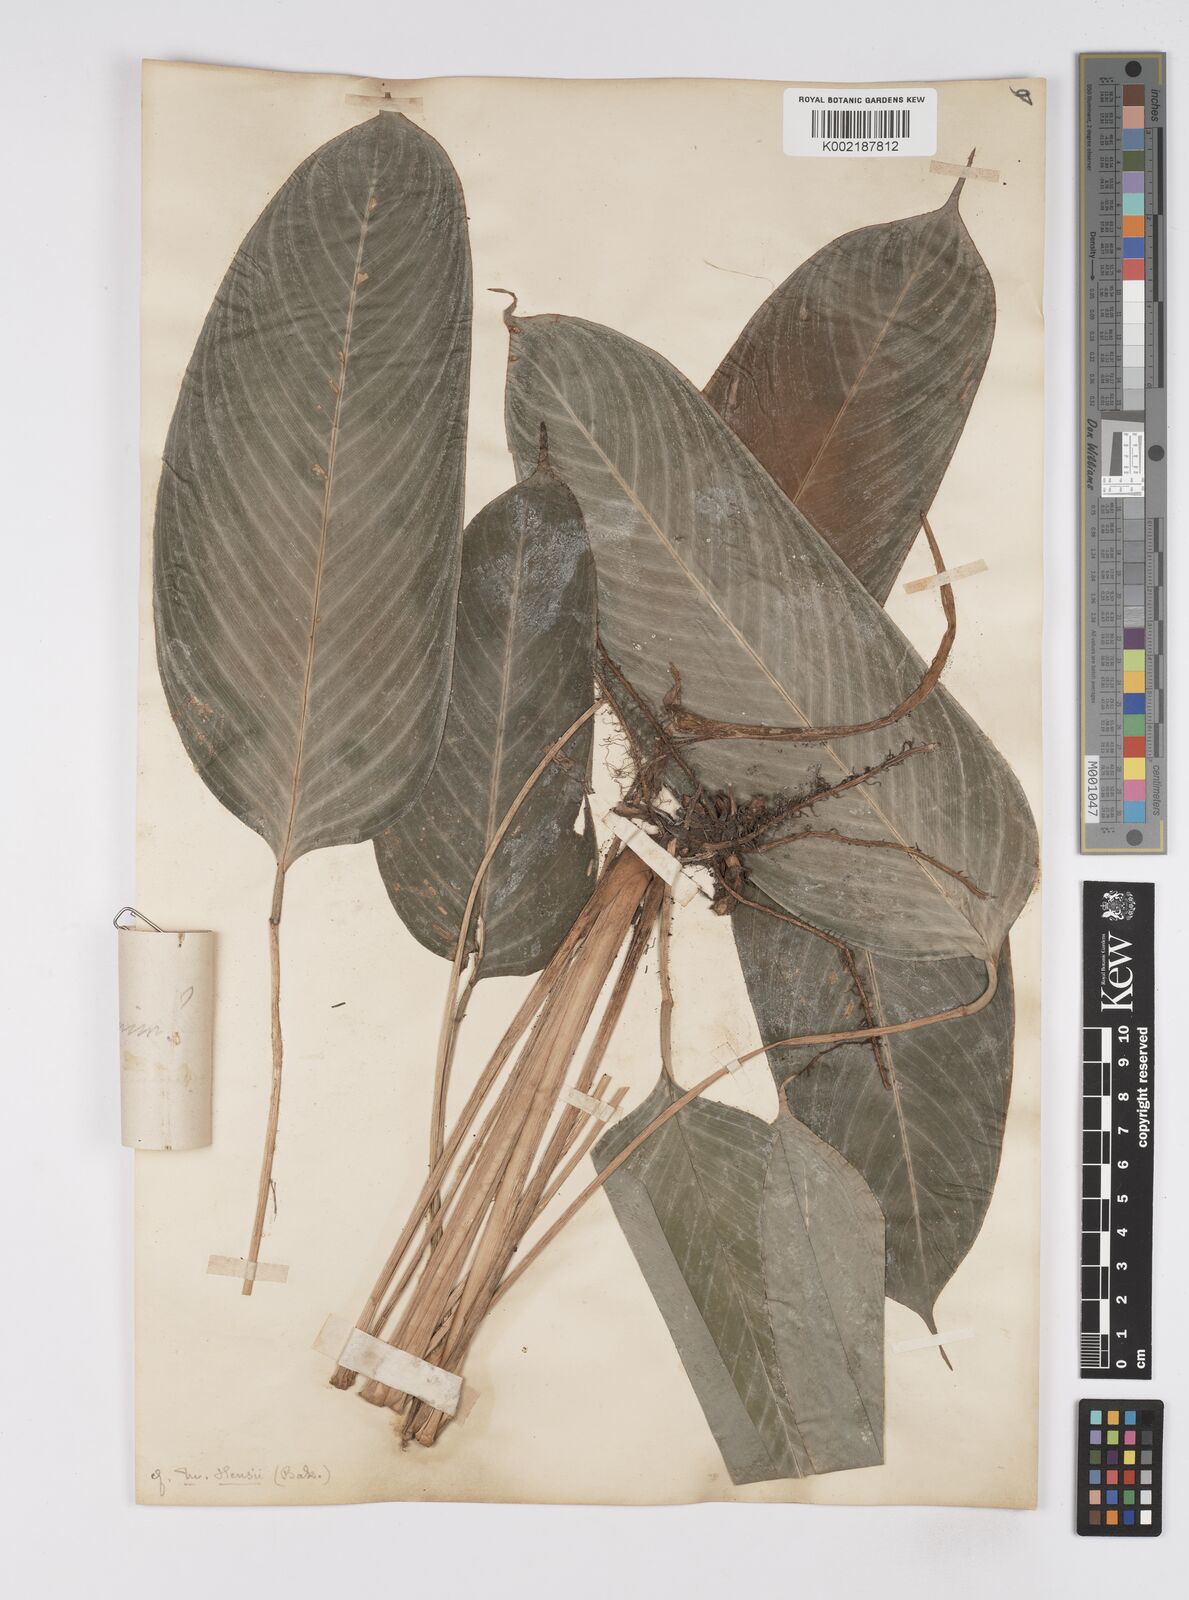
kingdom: Plantae
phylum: Tracheophyta
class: Liliopsida
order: Zingiberales
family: Marantaceae
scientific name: Marantaceae
